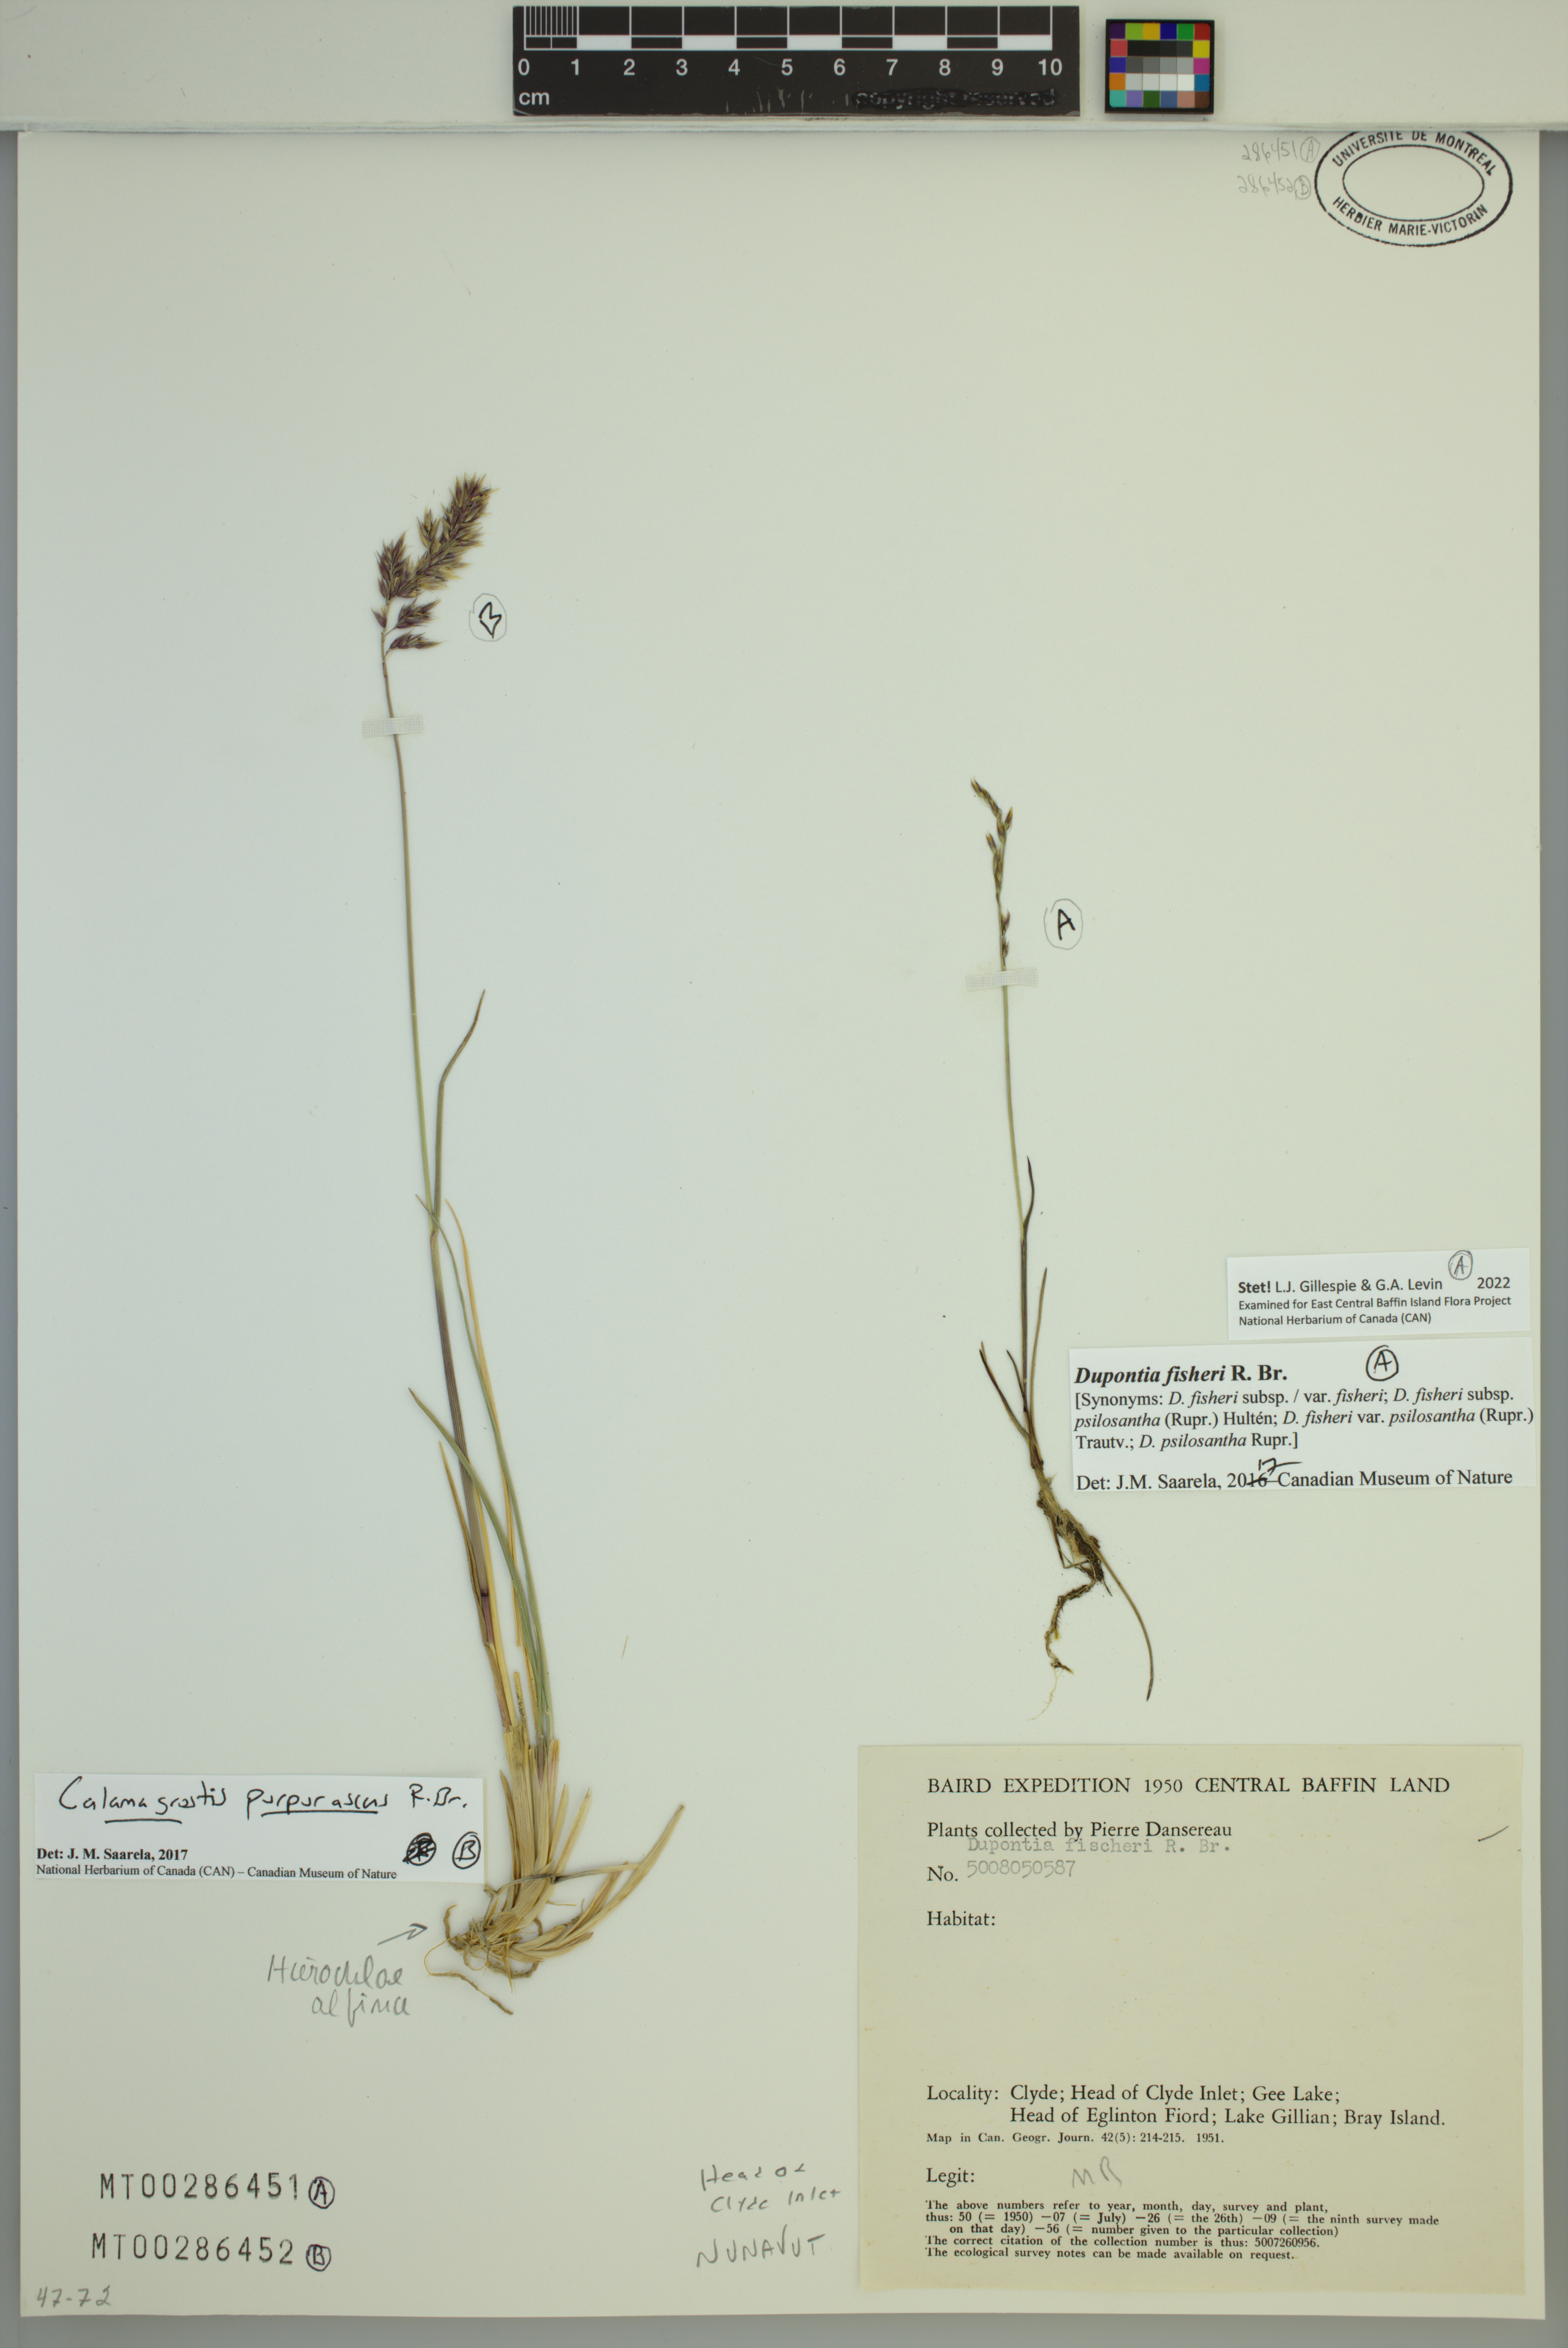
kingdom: Plantae
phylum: Tracheophyta
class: Liliopsida
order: Poales
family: Poaceae
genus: Calamagrostis
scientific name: Calamagrostis purpurascens
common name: Purple reedgrass
